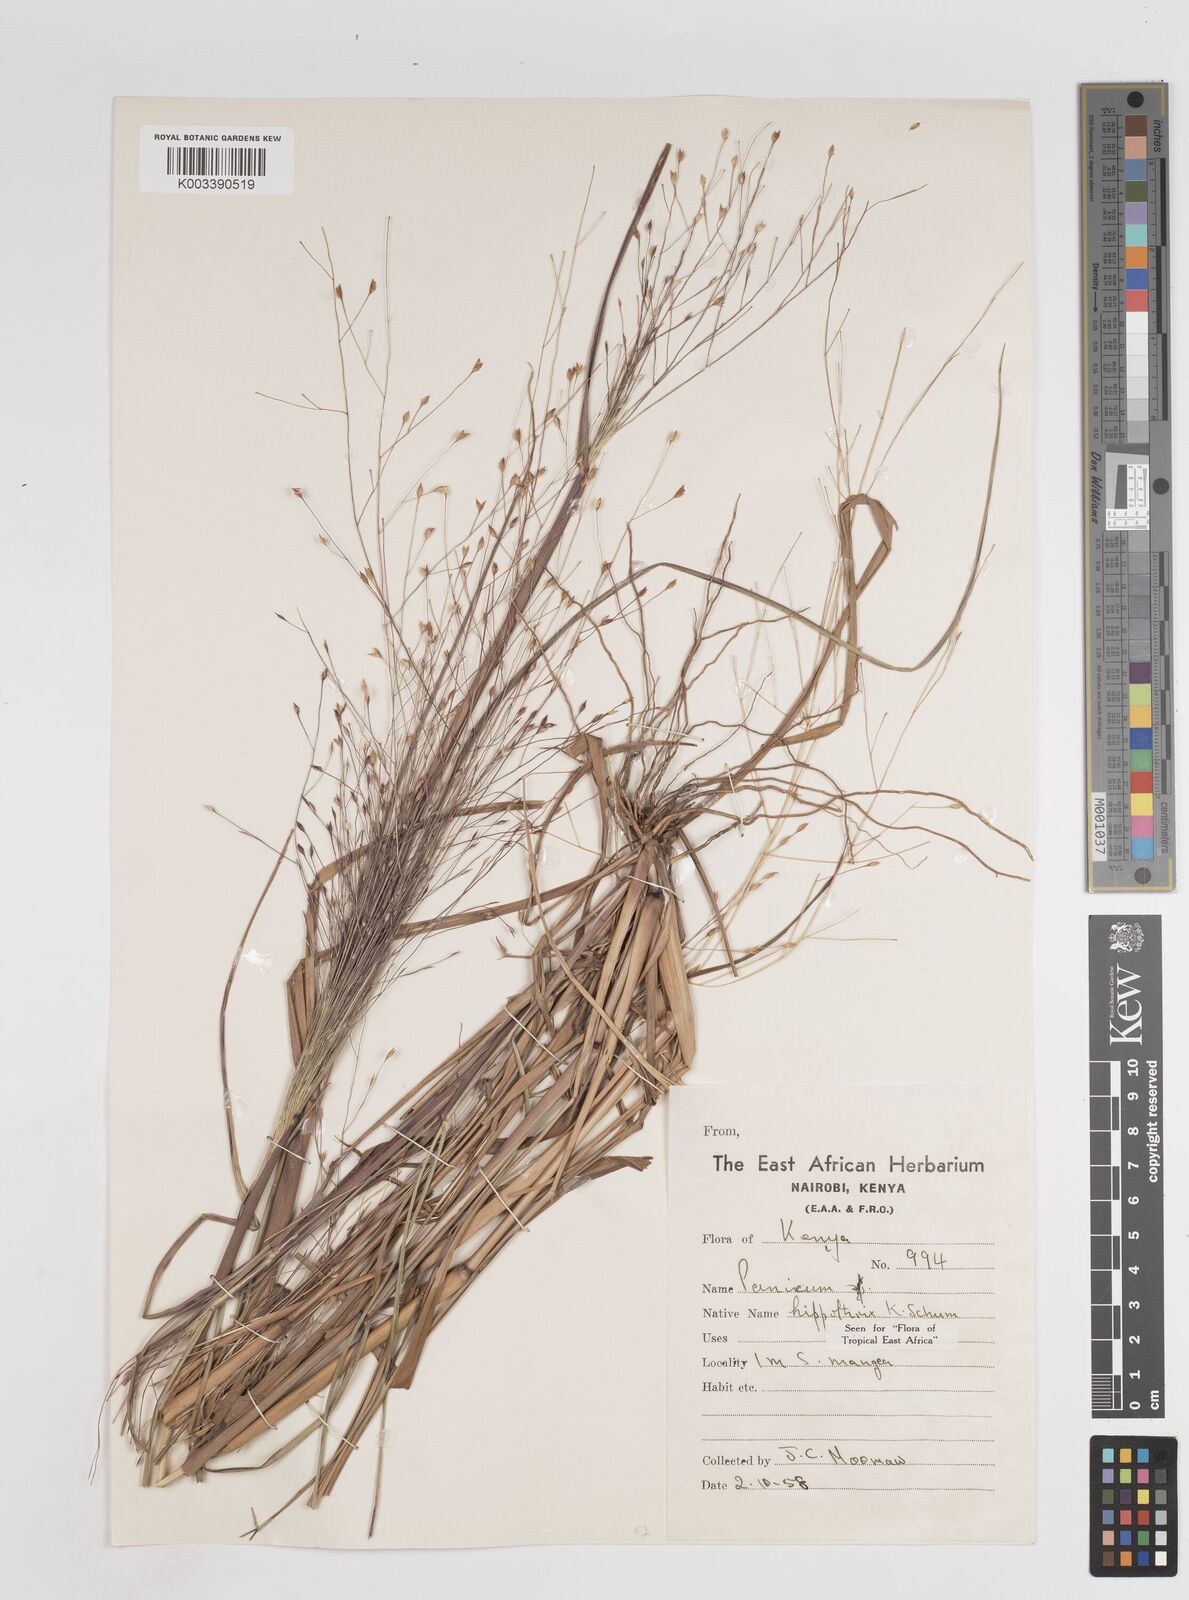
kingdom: Plantae
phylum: Tracheophyta
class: Liliopsida
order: Poales
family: Poaceae
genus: Panicum
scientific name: Panicum hippothrix
